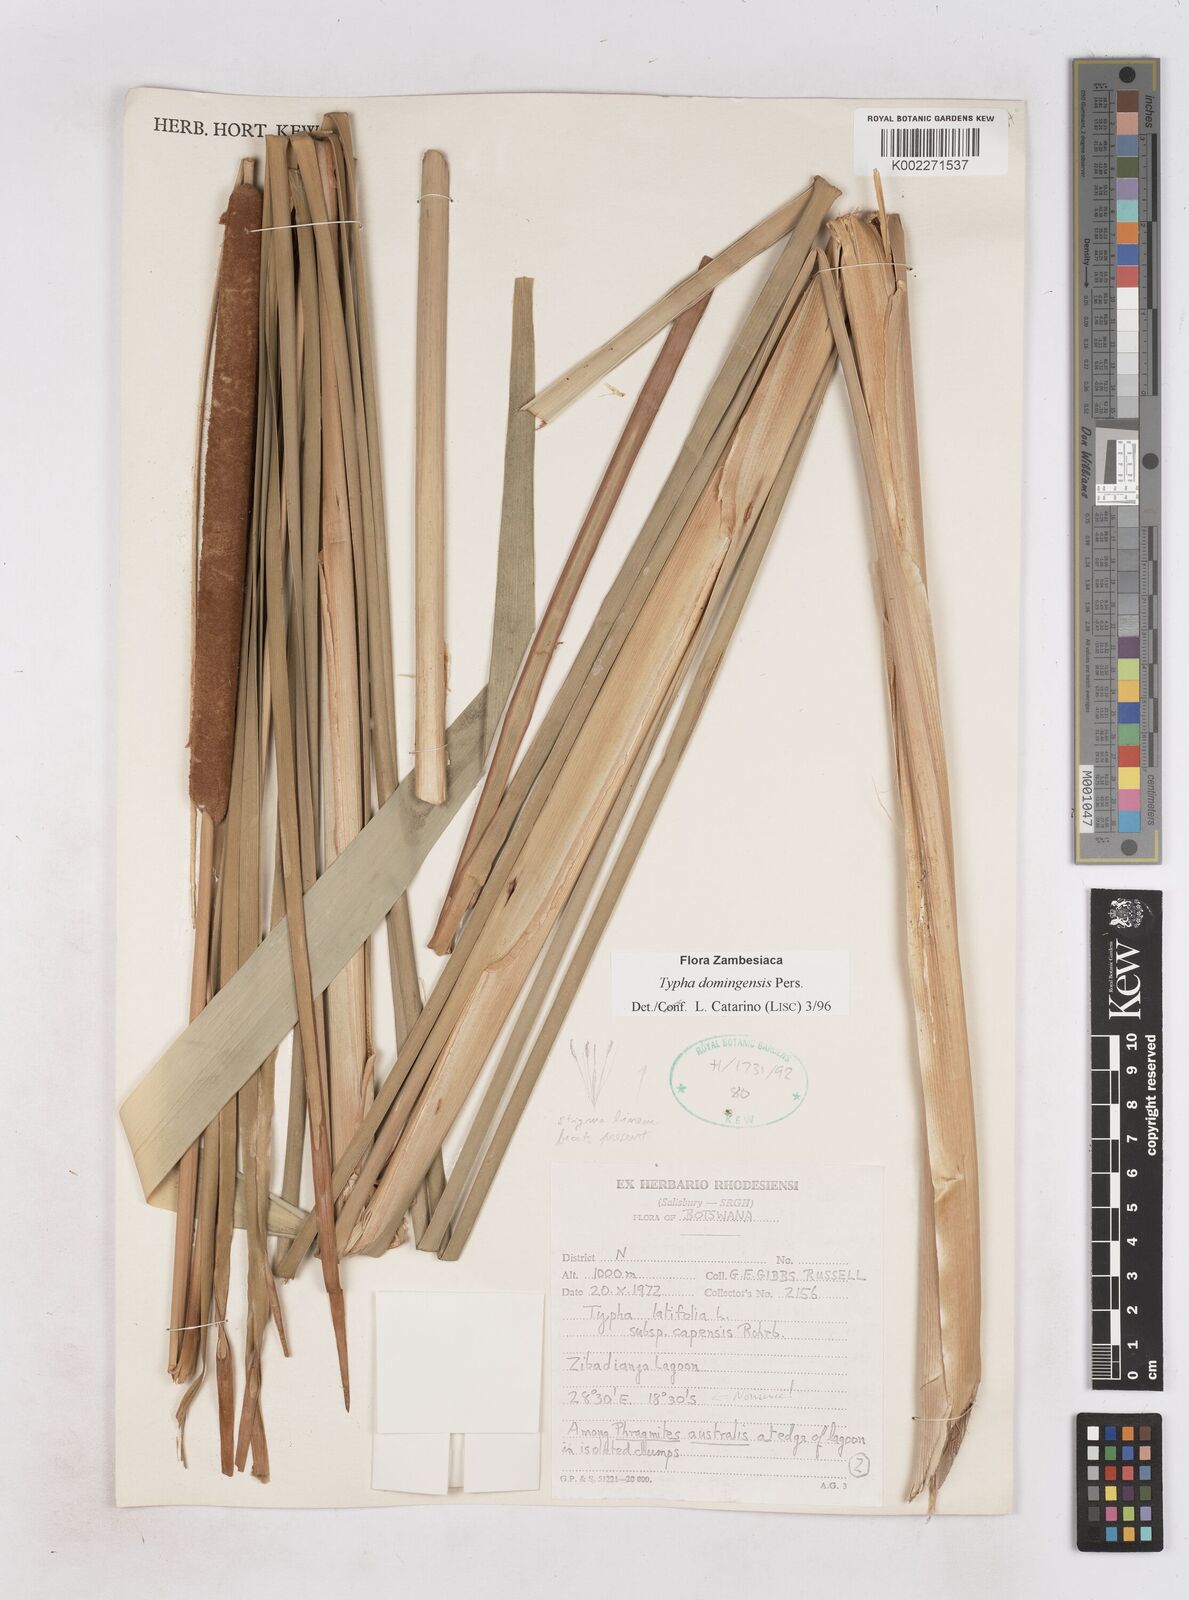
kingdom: Plantae
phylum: Tracheophyta
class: Liliopsida
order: Poales
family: Typhaceae
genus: Typha
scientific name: Typha domingensis
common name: Southern cattail
